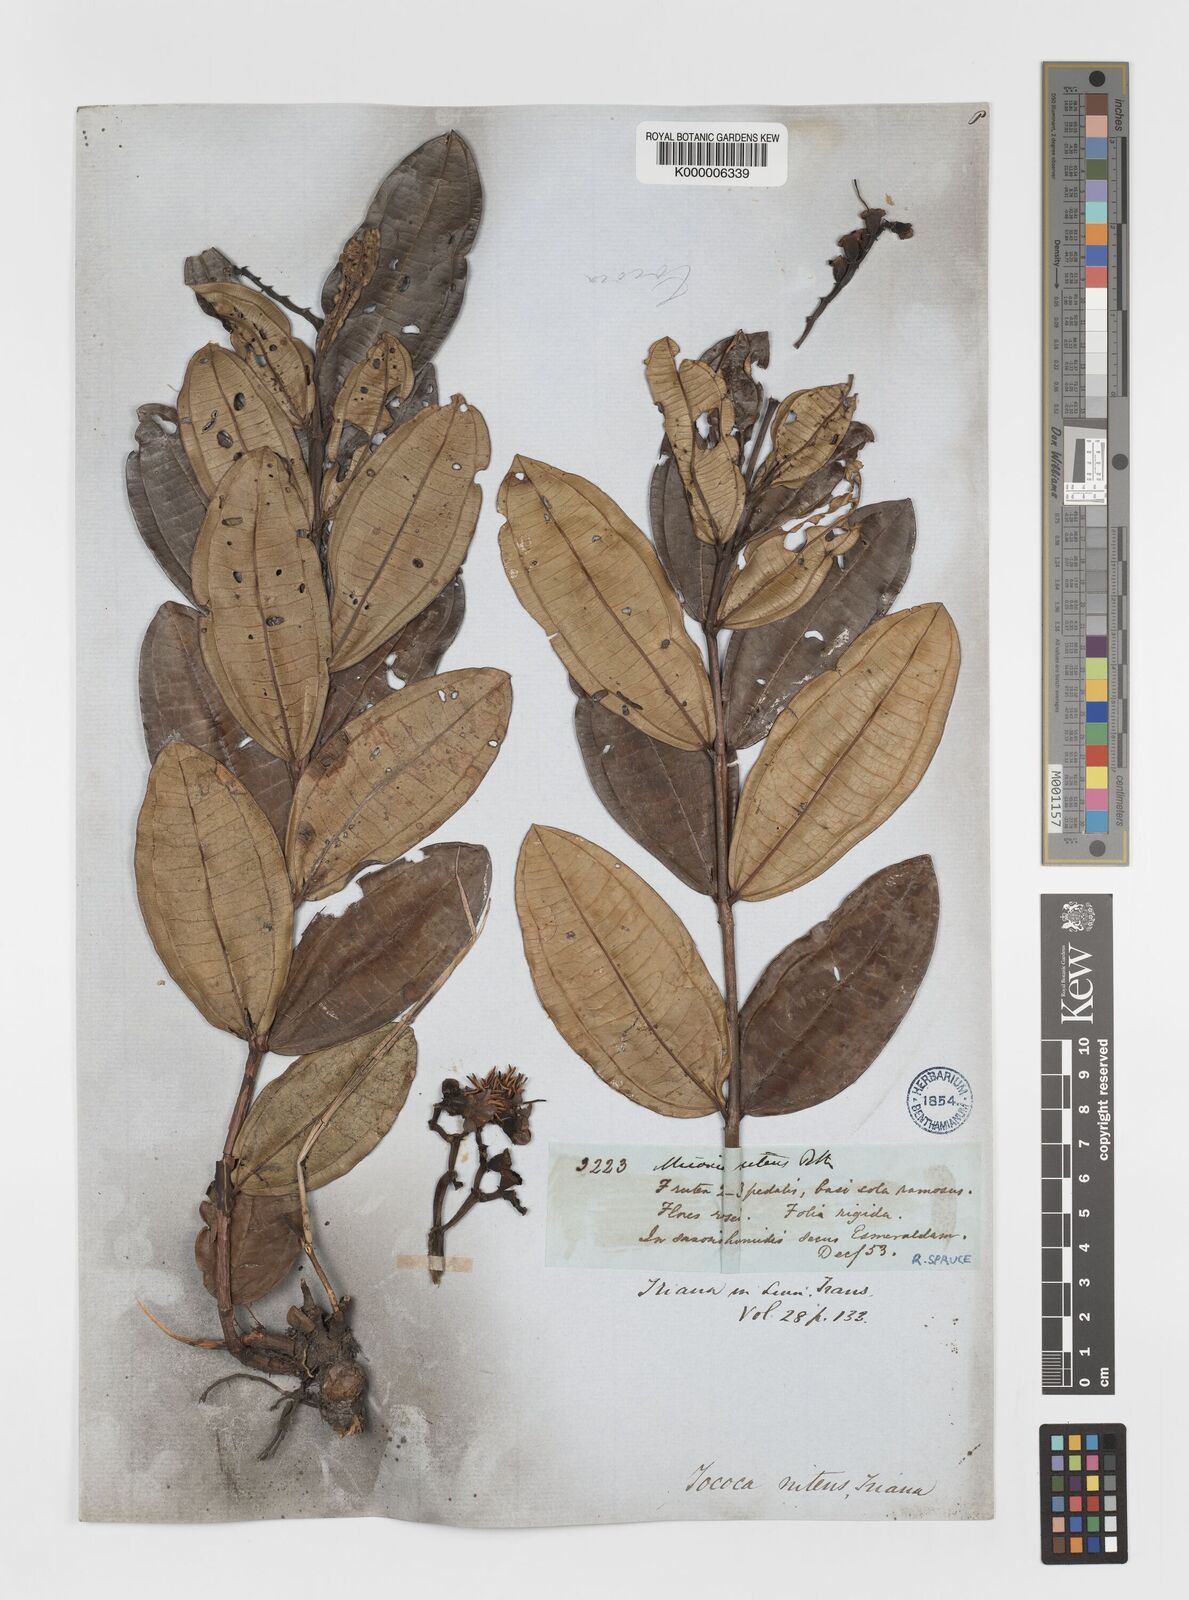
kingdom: Plantae
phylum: Tracheophyta
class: Magnoliopsida
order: Myrtales
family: Melastomataceae
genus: Miconia
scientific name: Miconia
